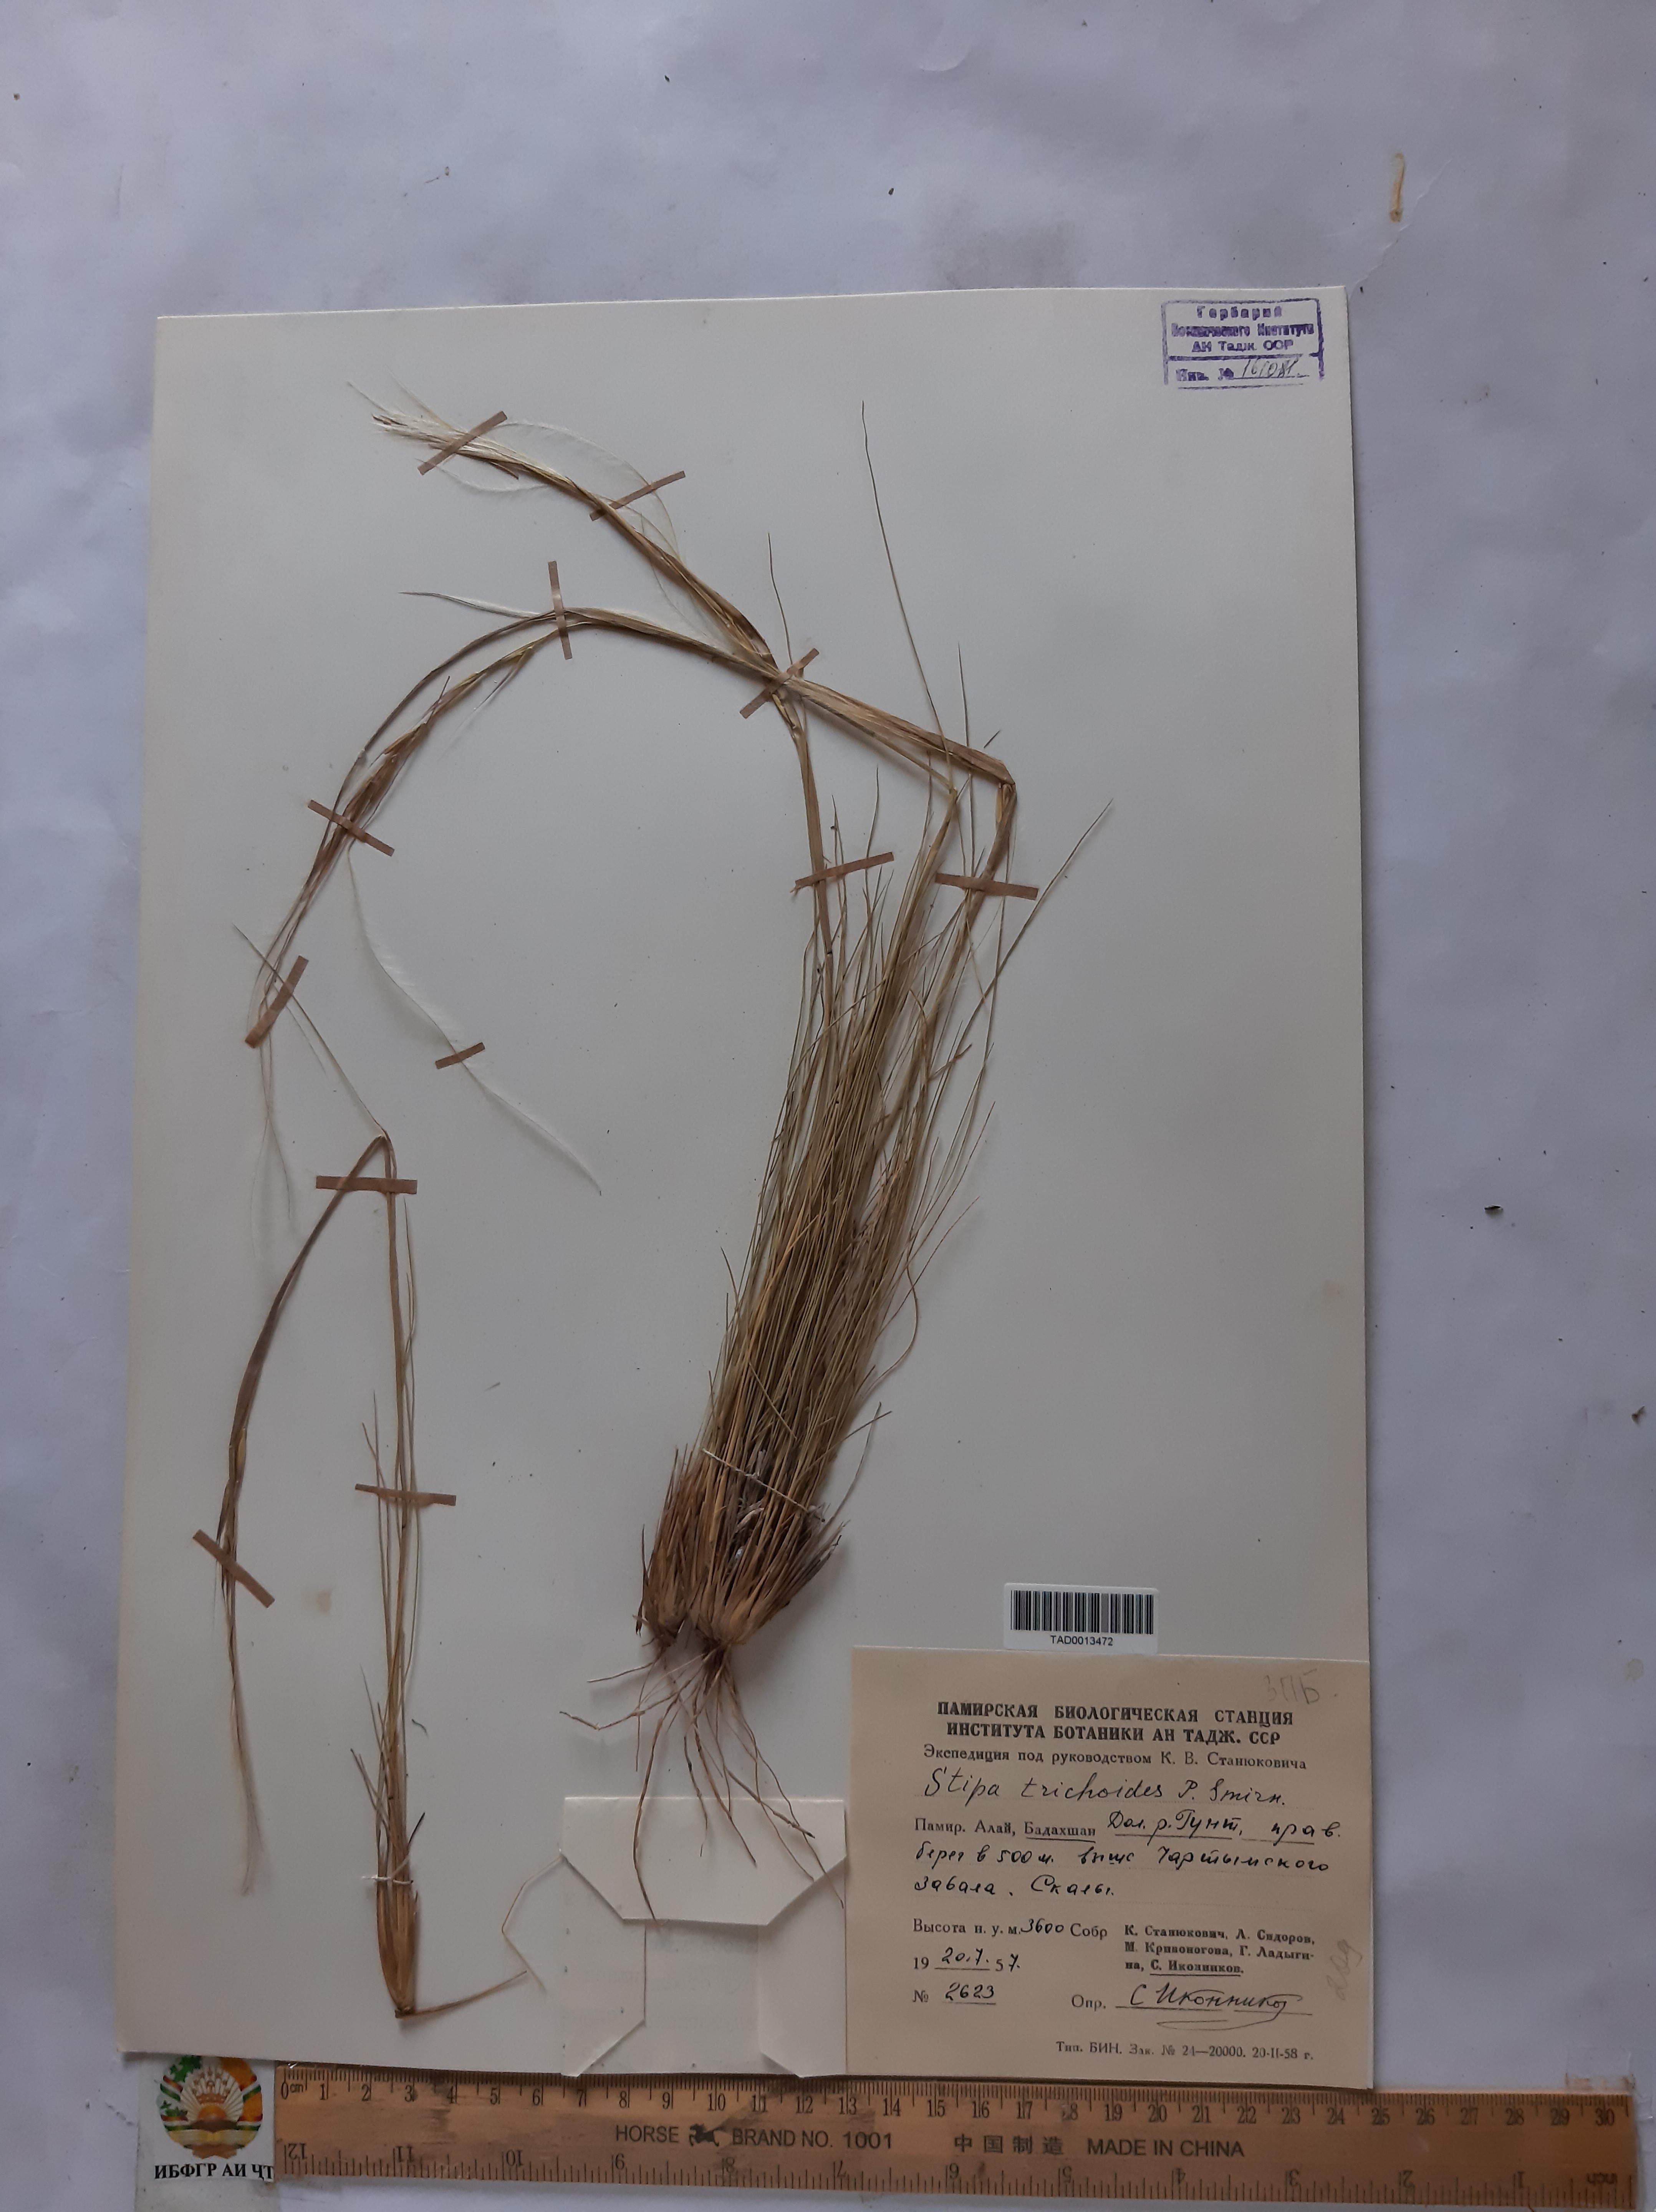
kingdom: Plantae
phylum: Tracheophyta
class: Liliopsida
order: Poales
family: Poaceae
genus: Stipa
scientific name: Stipa trichoides
